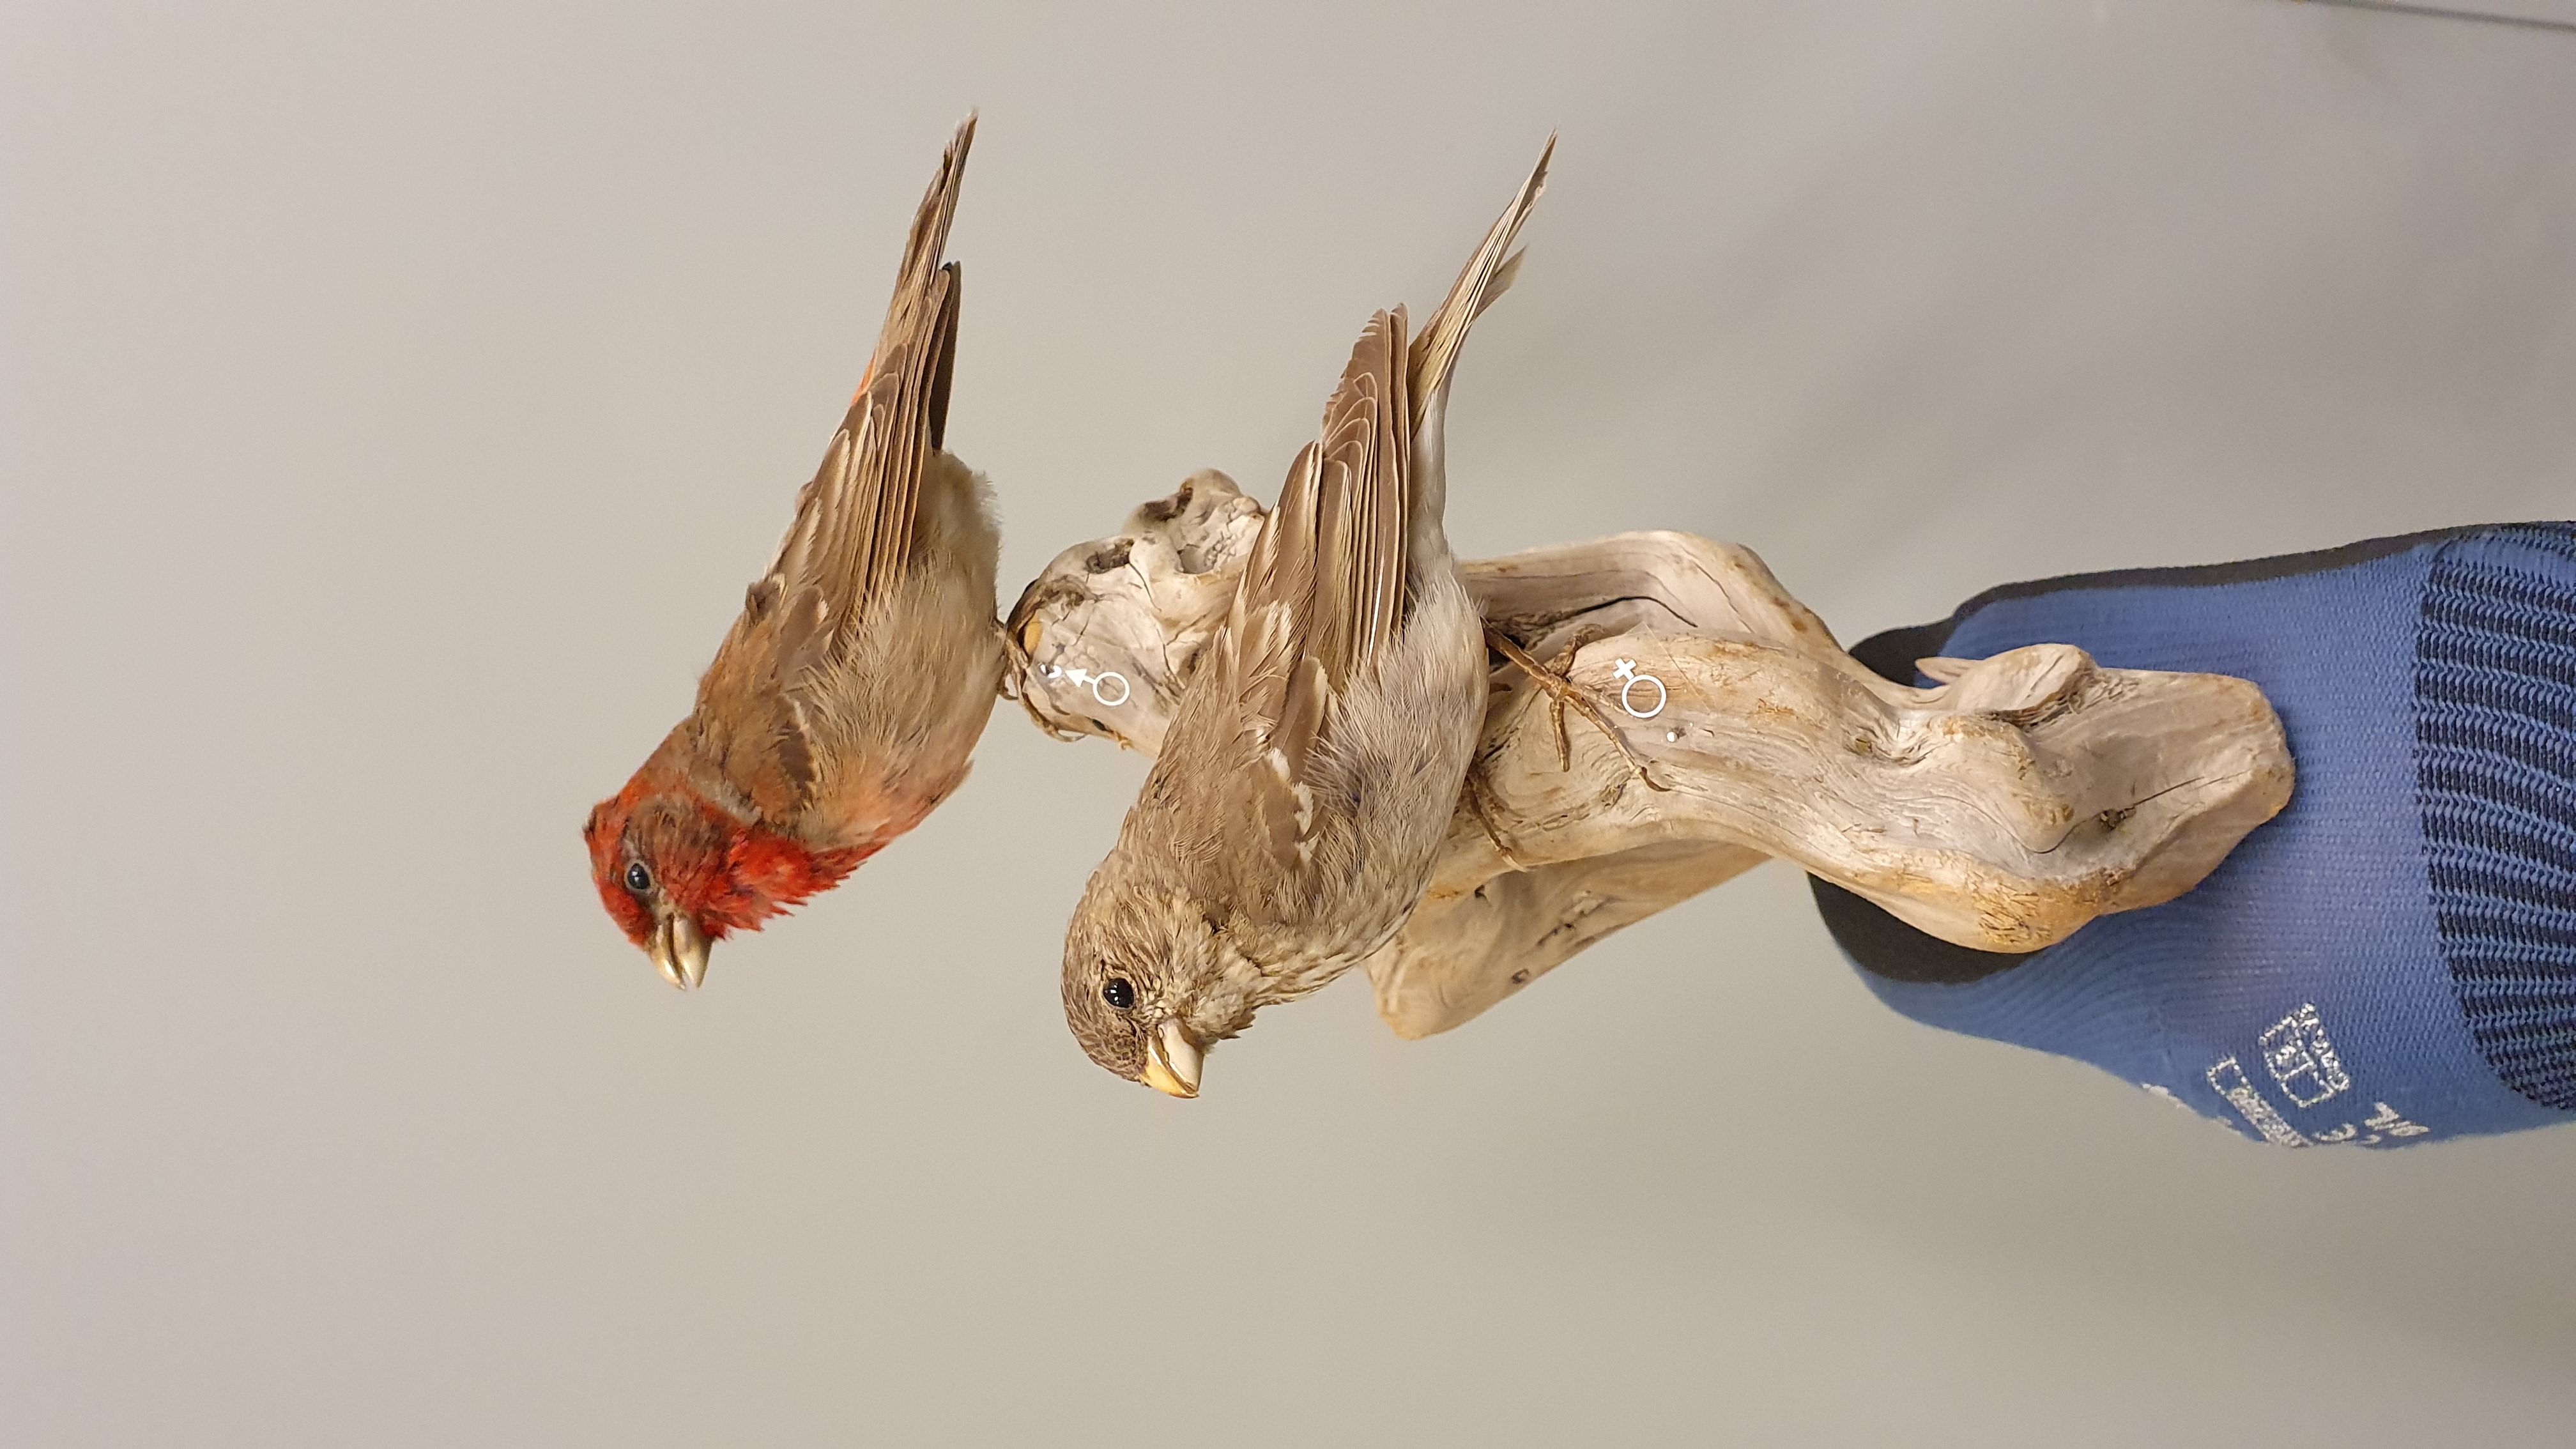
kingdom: Animalia
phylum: Chordata
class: Aves
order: Passeriformes
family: Fringillidae
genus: Carpodacus
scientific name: Carpodacus erythrinus
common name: Common rosefinch
